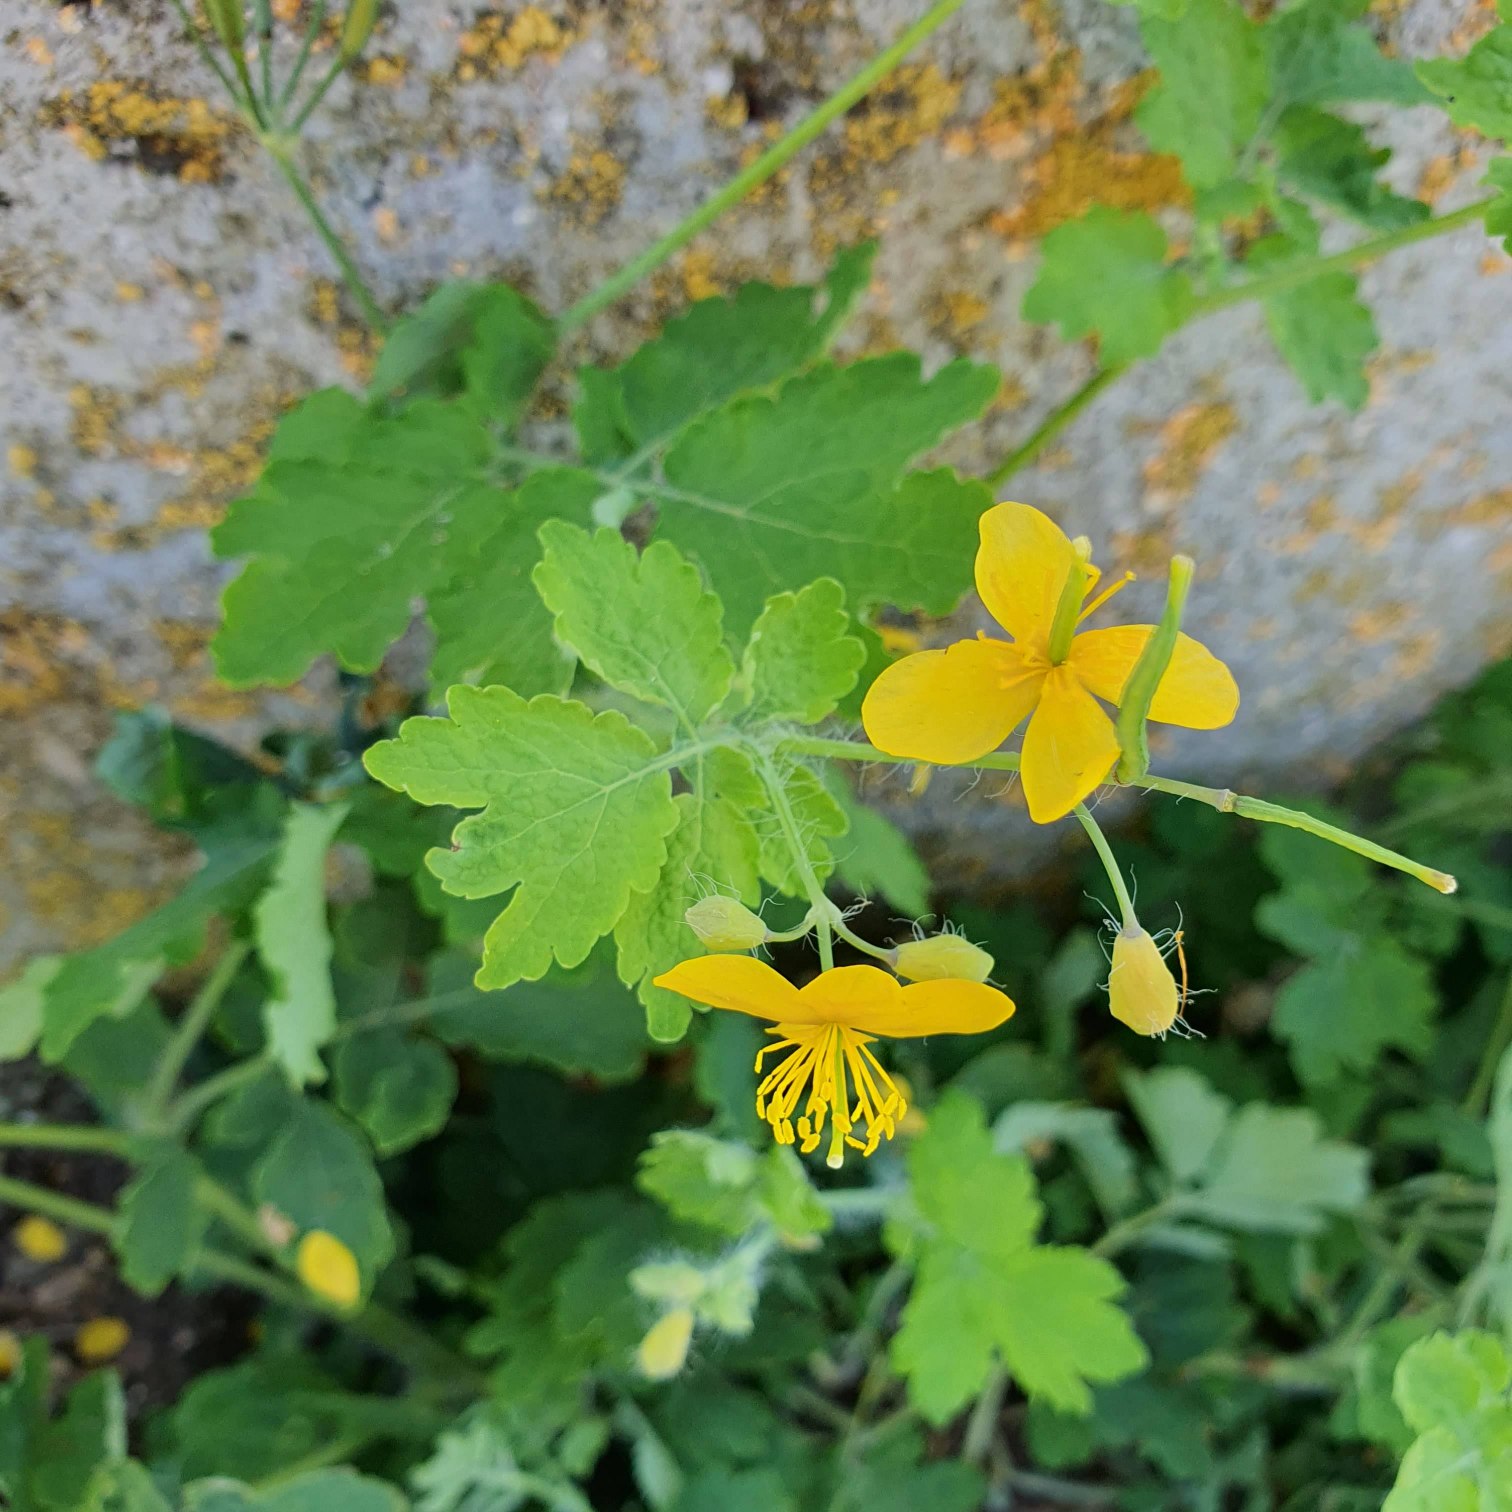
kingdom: Plantae
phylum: Tracheophyta
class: Magnoliopsida
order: Ranunculales
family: Papaveraceae
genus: Chelidonium
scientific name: Chelidonium majus
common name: Svaleurt
